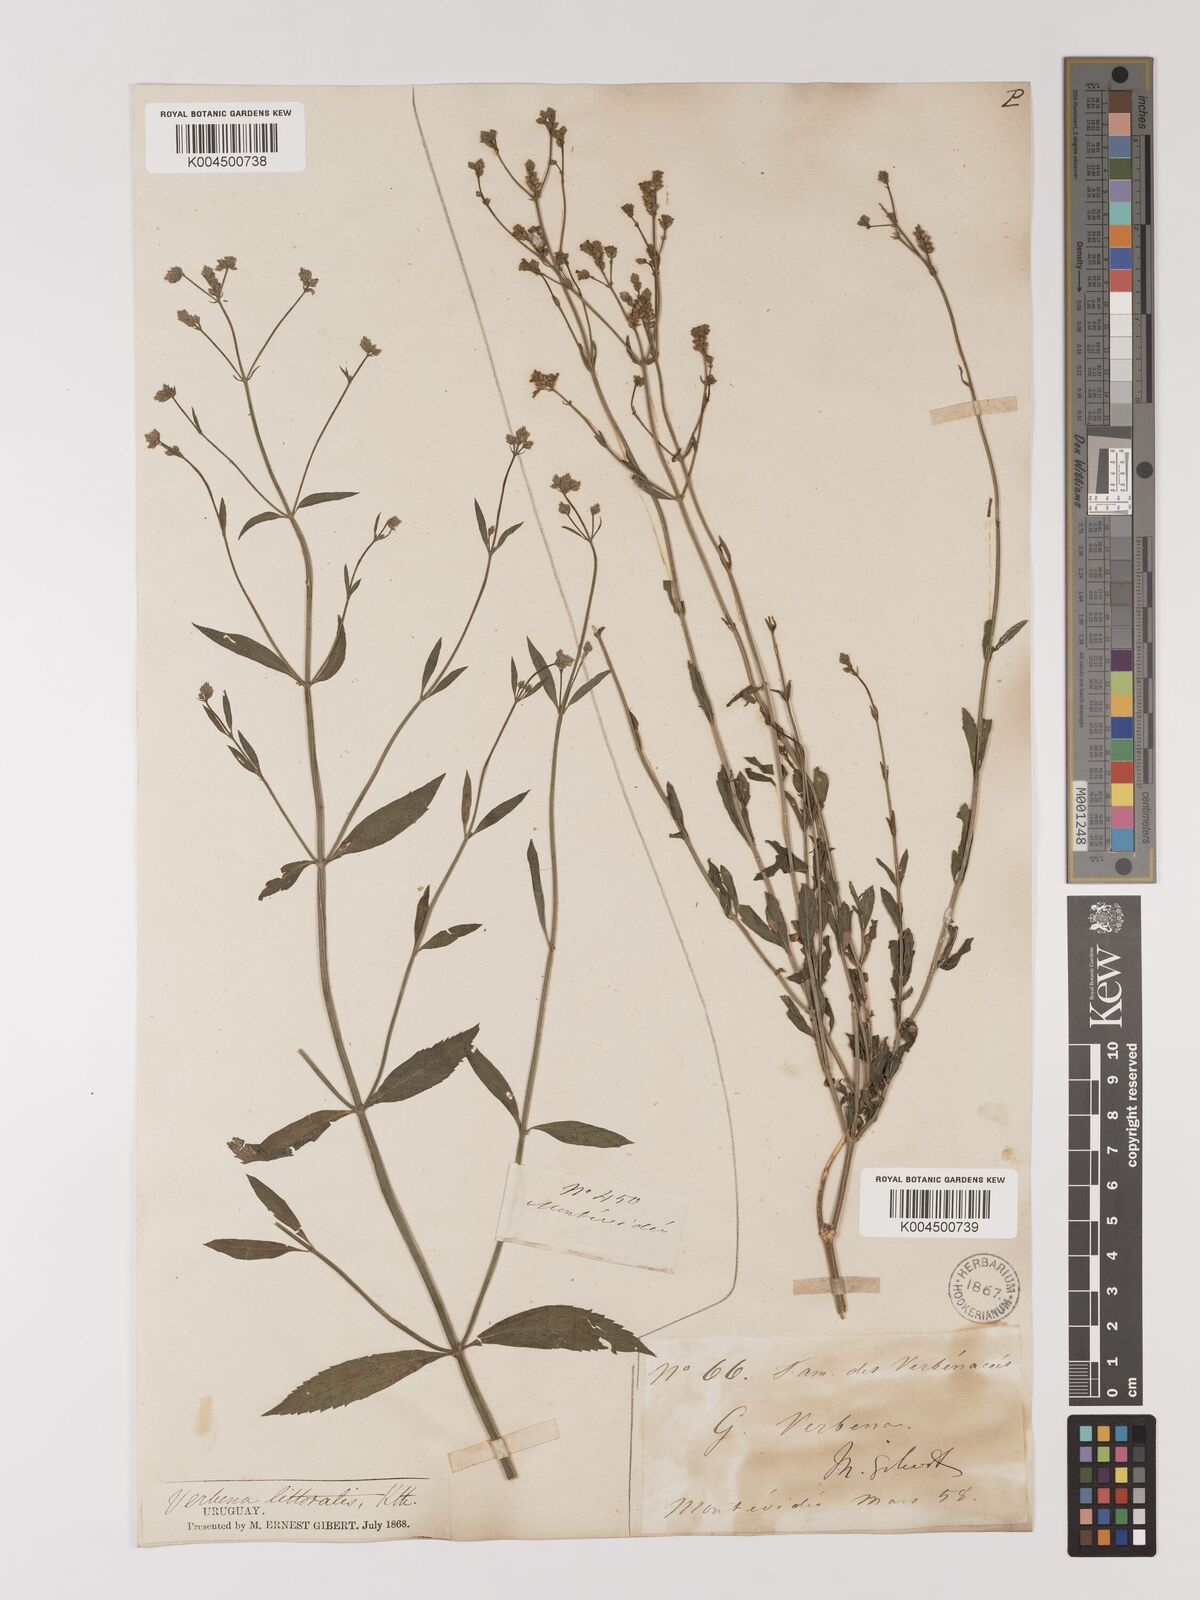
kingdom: Plantae
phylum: Tracheophyta
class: Magnoliopsida
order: Lamiales
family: Verbenaceae
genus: Verbena
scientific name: Verbena litoralis
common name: Seashore vervain
